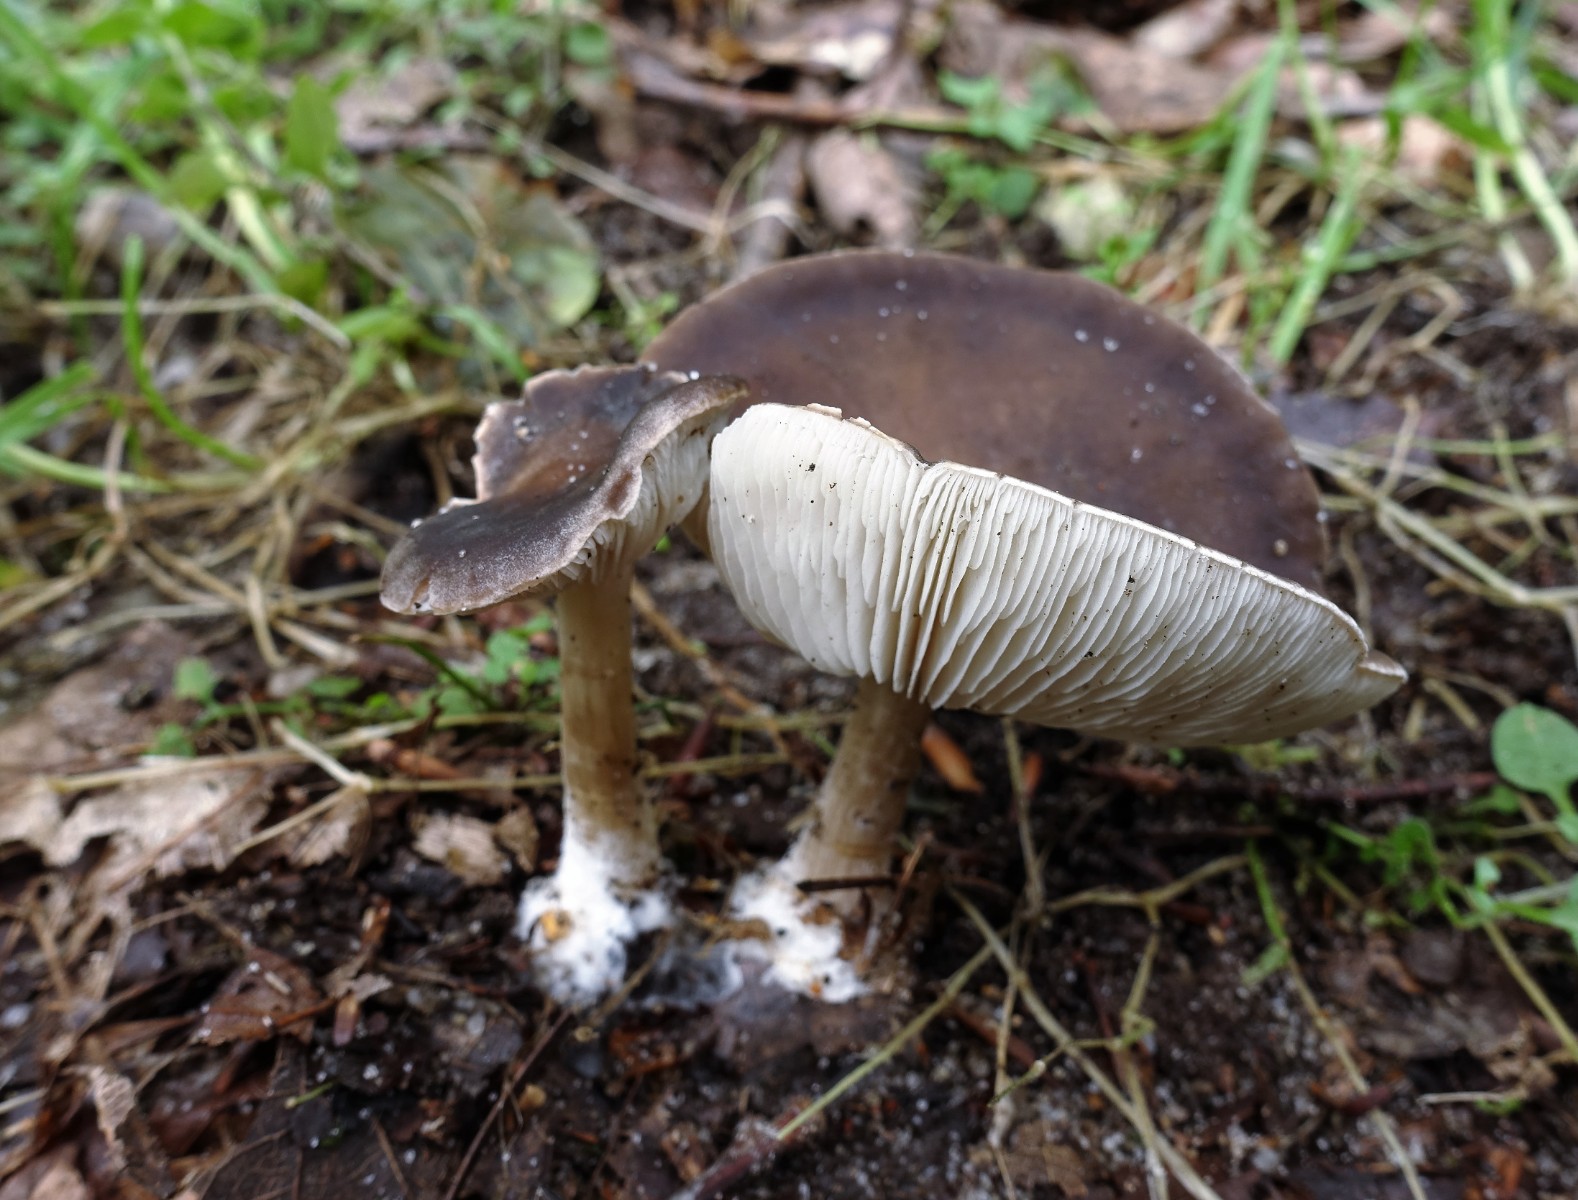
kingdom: Fungi
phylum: Basidiomycota
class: Agaricomycetes
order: Agaricales
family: Tricholomataceae
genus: Melanoleuca
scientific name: Melanoleuca polioleuca
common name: almindelig munkehat
